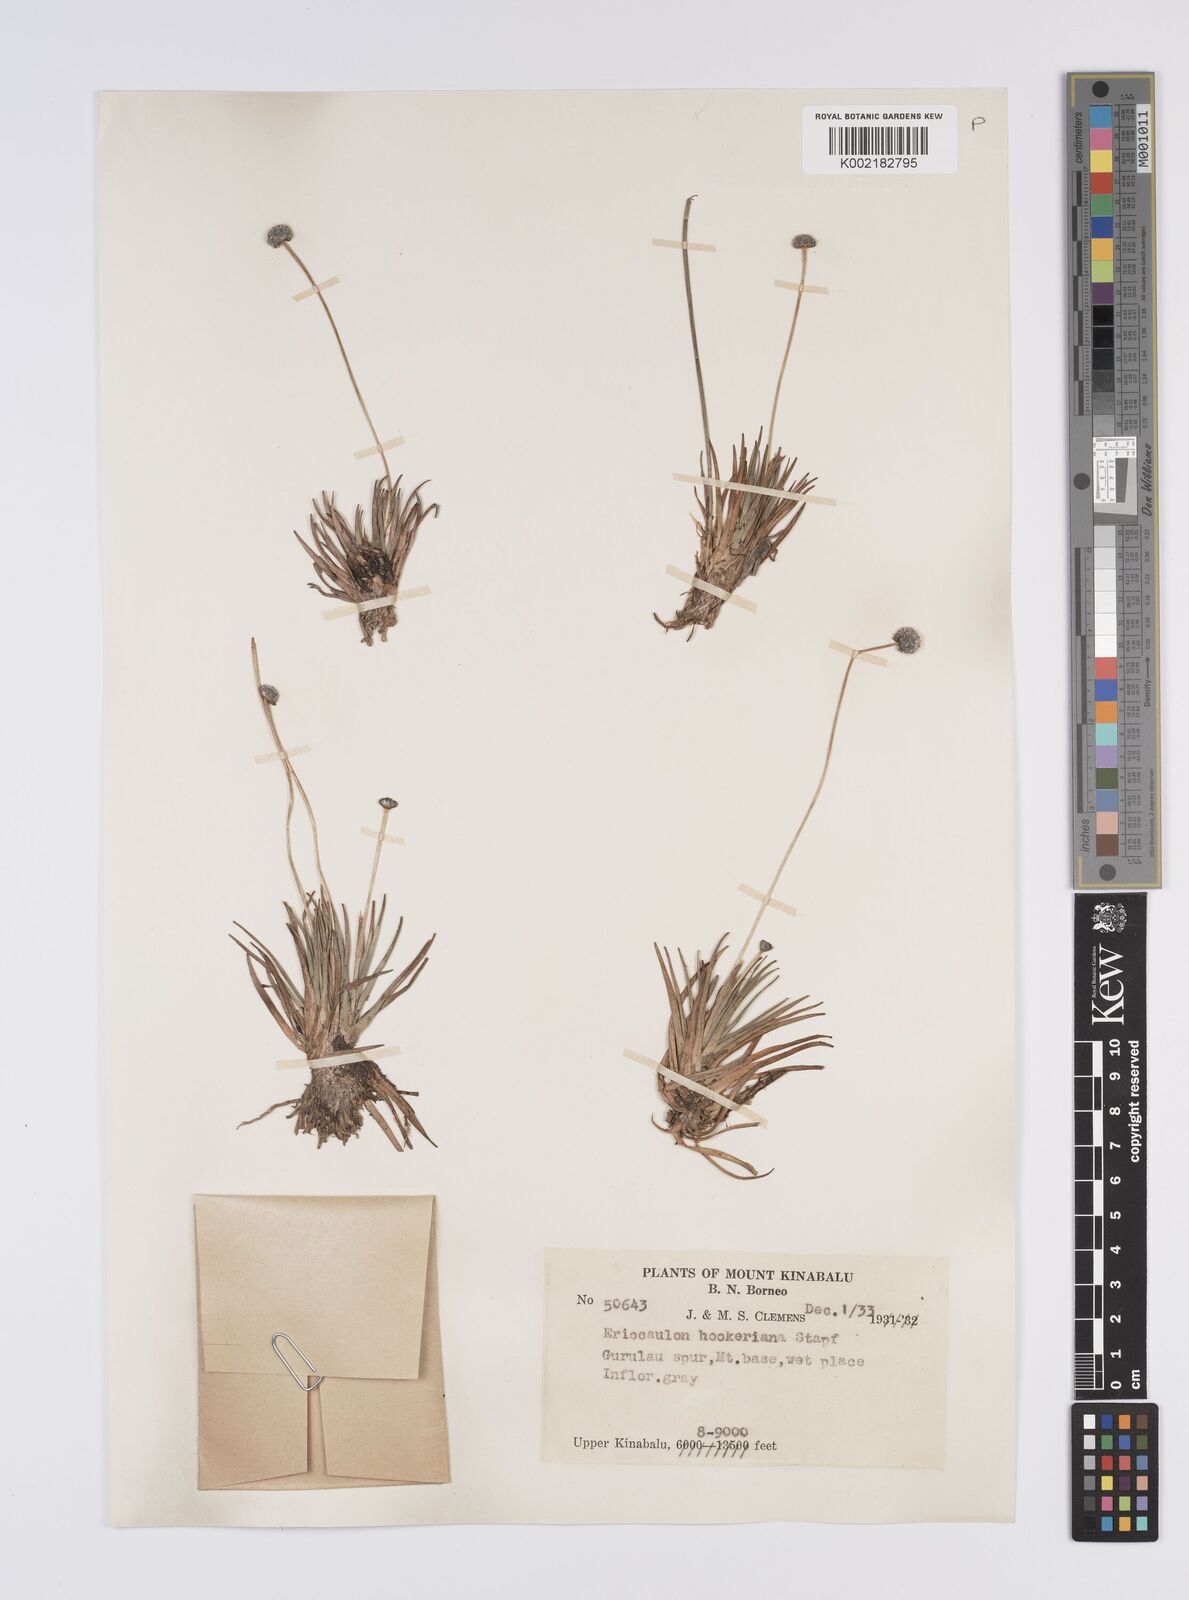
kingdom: Plantae
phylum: Tracheophyta
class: Liliopsida
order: Poales
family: Eriocaulaceae
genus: Eriocaulon
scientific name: Eriocaulon hookerianum
